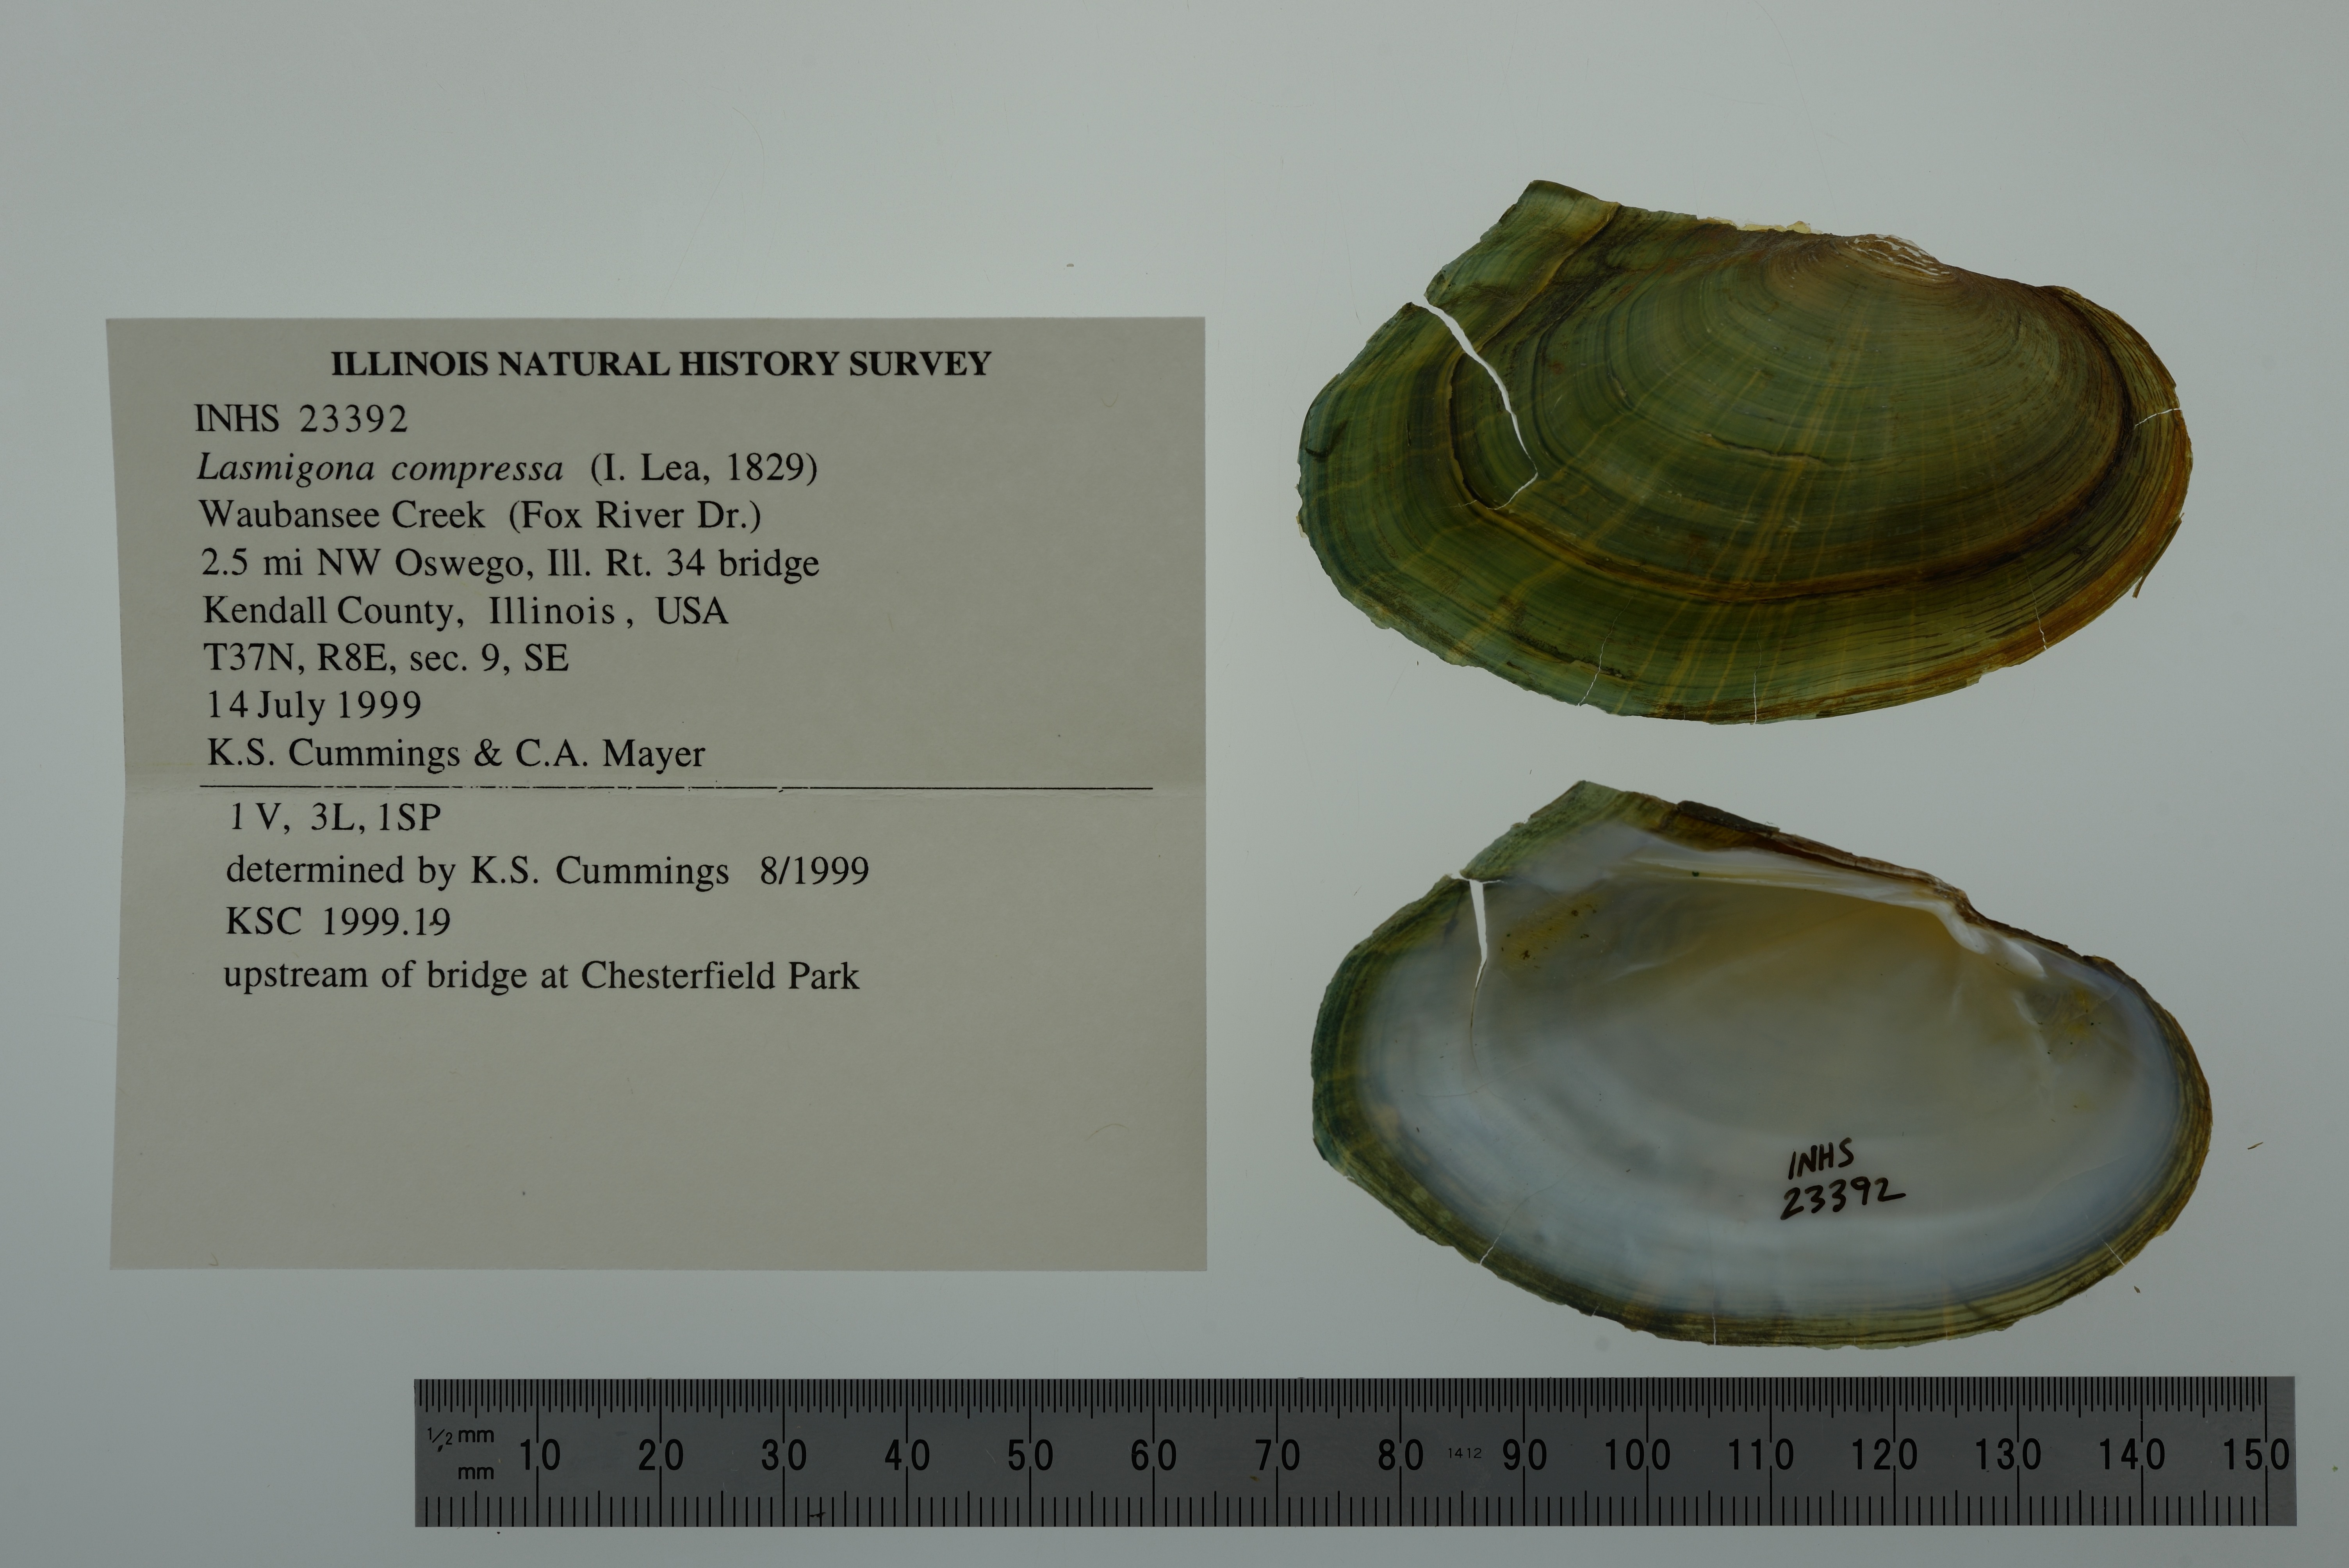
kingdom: Animalia
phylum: Mollusca
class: Bivalvia
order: Unionida
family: Unionidae
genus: Lasmigona
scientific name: Lasmigona compressa
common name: Creek heelsplitter
